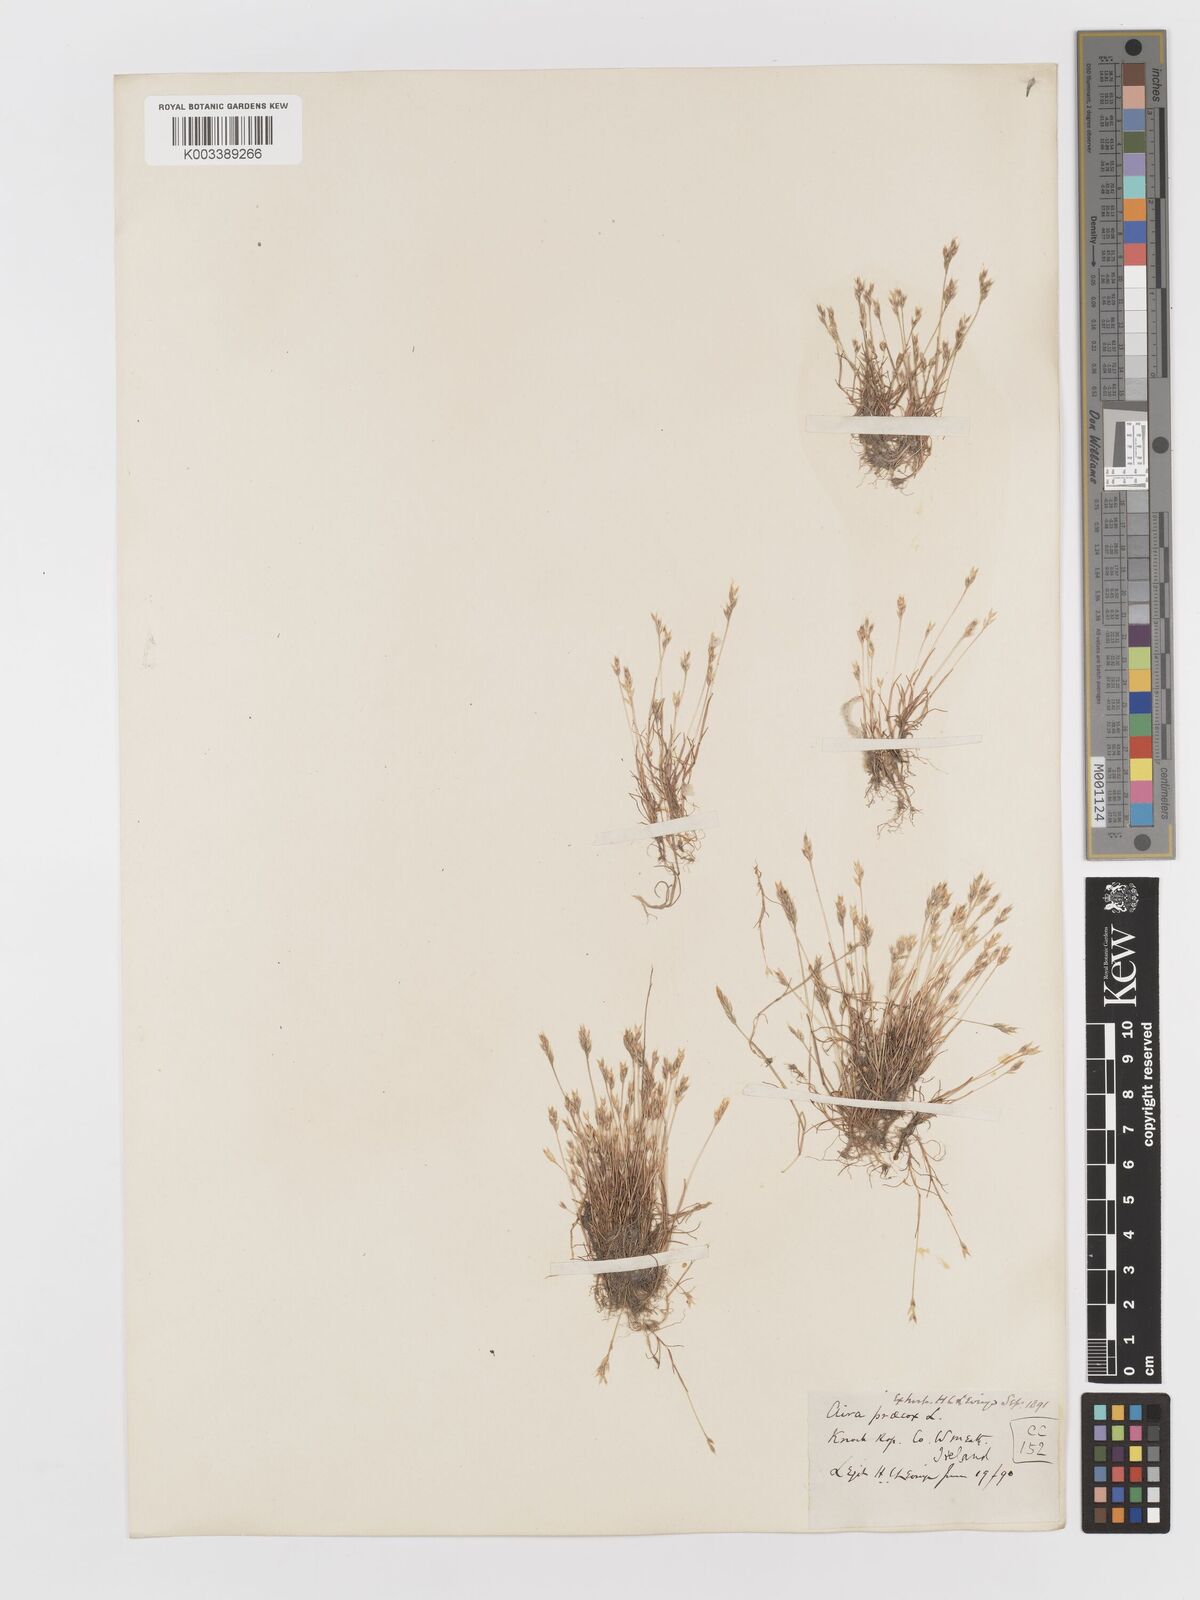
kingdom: Plantae
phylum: Tracheophyta
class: Liliopsida
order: Poales
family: Poaceae
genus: Aira
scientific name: Aira praecox
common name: Early hair-grass
